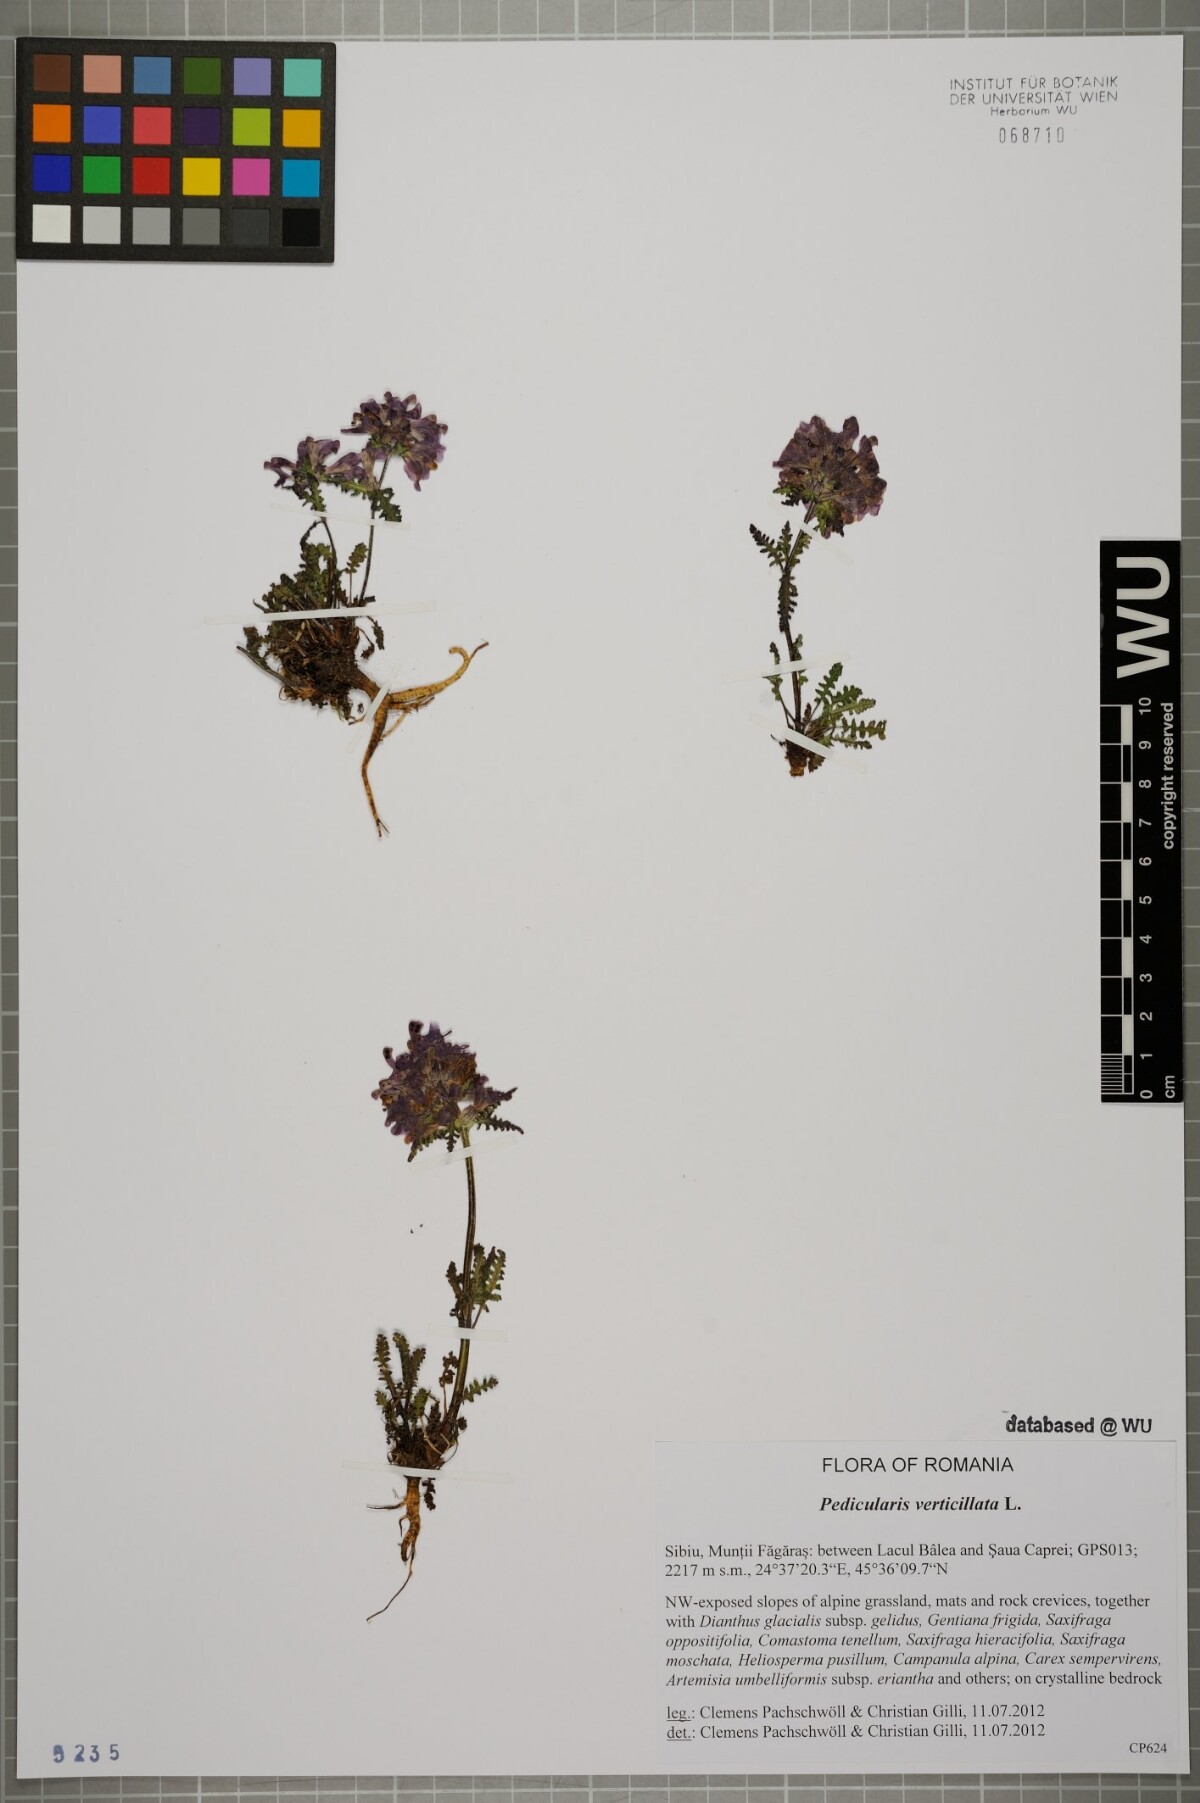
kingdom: Plantae
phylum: Tracheophyta
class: Magnoliopsida
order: Lamiales
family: Orobanchaceae
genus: Pedicularis
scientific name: Pedicularis verticillata
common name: Whorled lousewort
